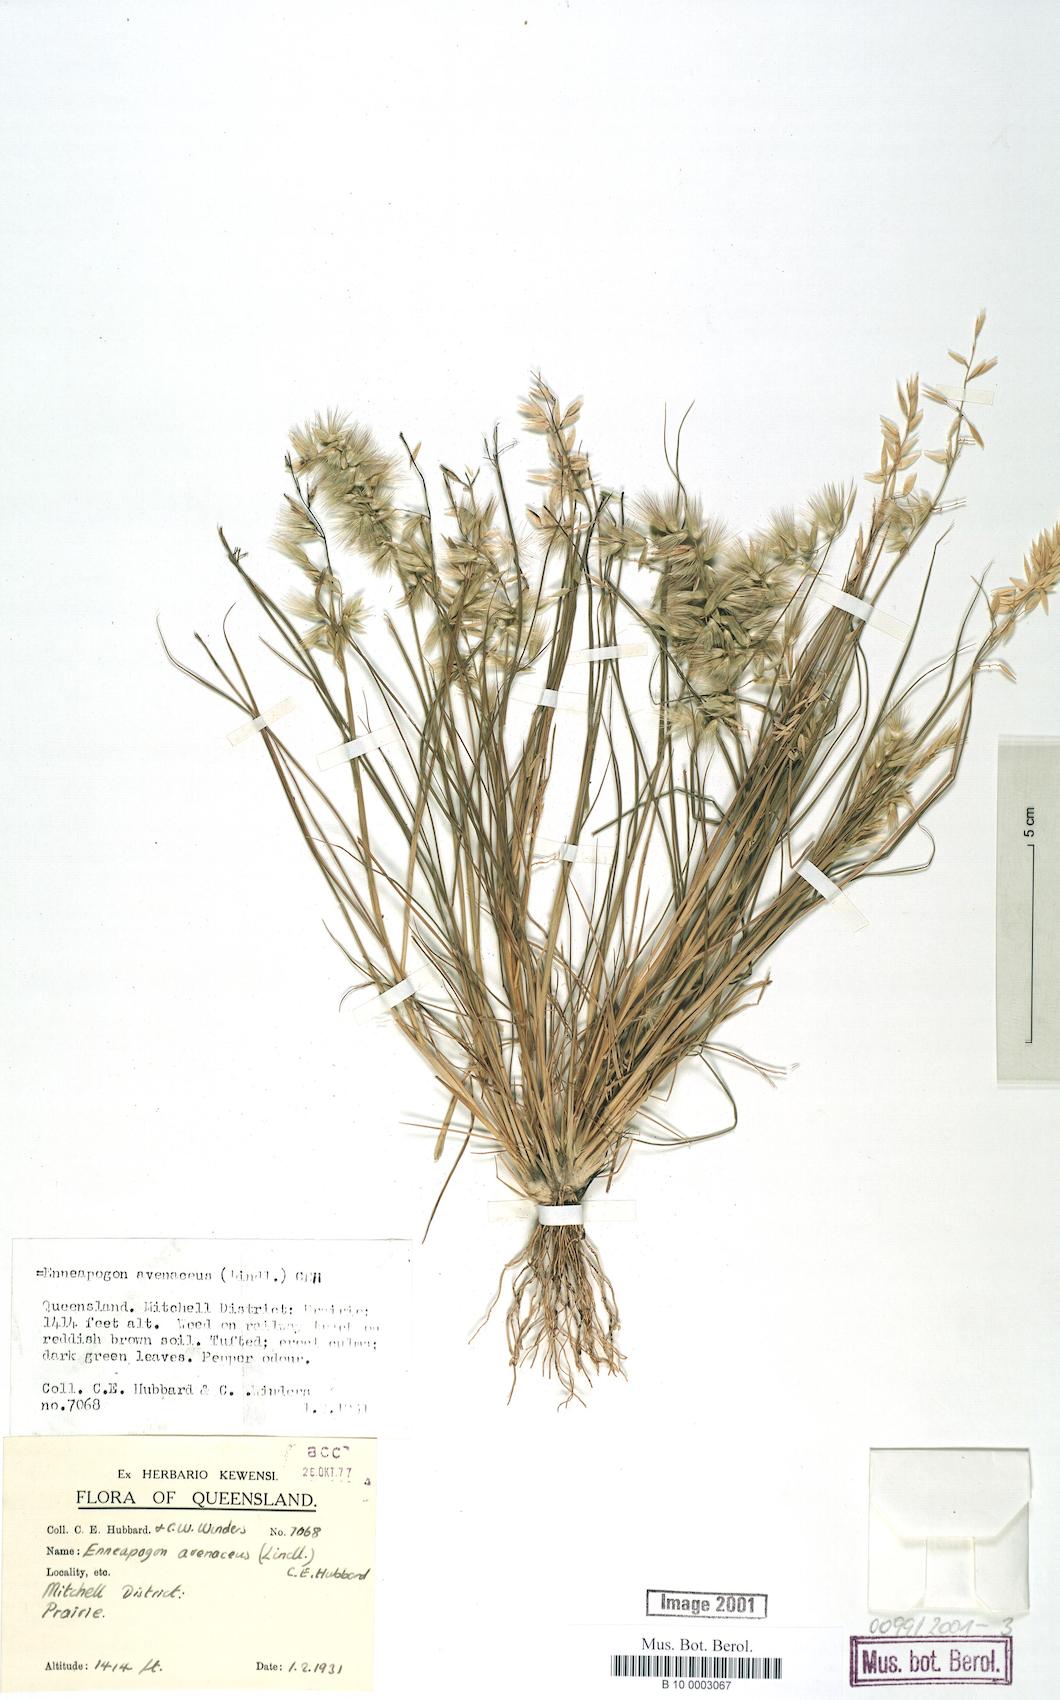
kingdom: Plantae
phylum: Tracheophyta
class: Liliopsida
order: Poales
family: Poaceae
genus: Enneapogon
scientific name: Enneapogon avenaceus
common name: Hairy oat grass
